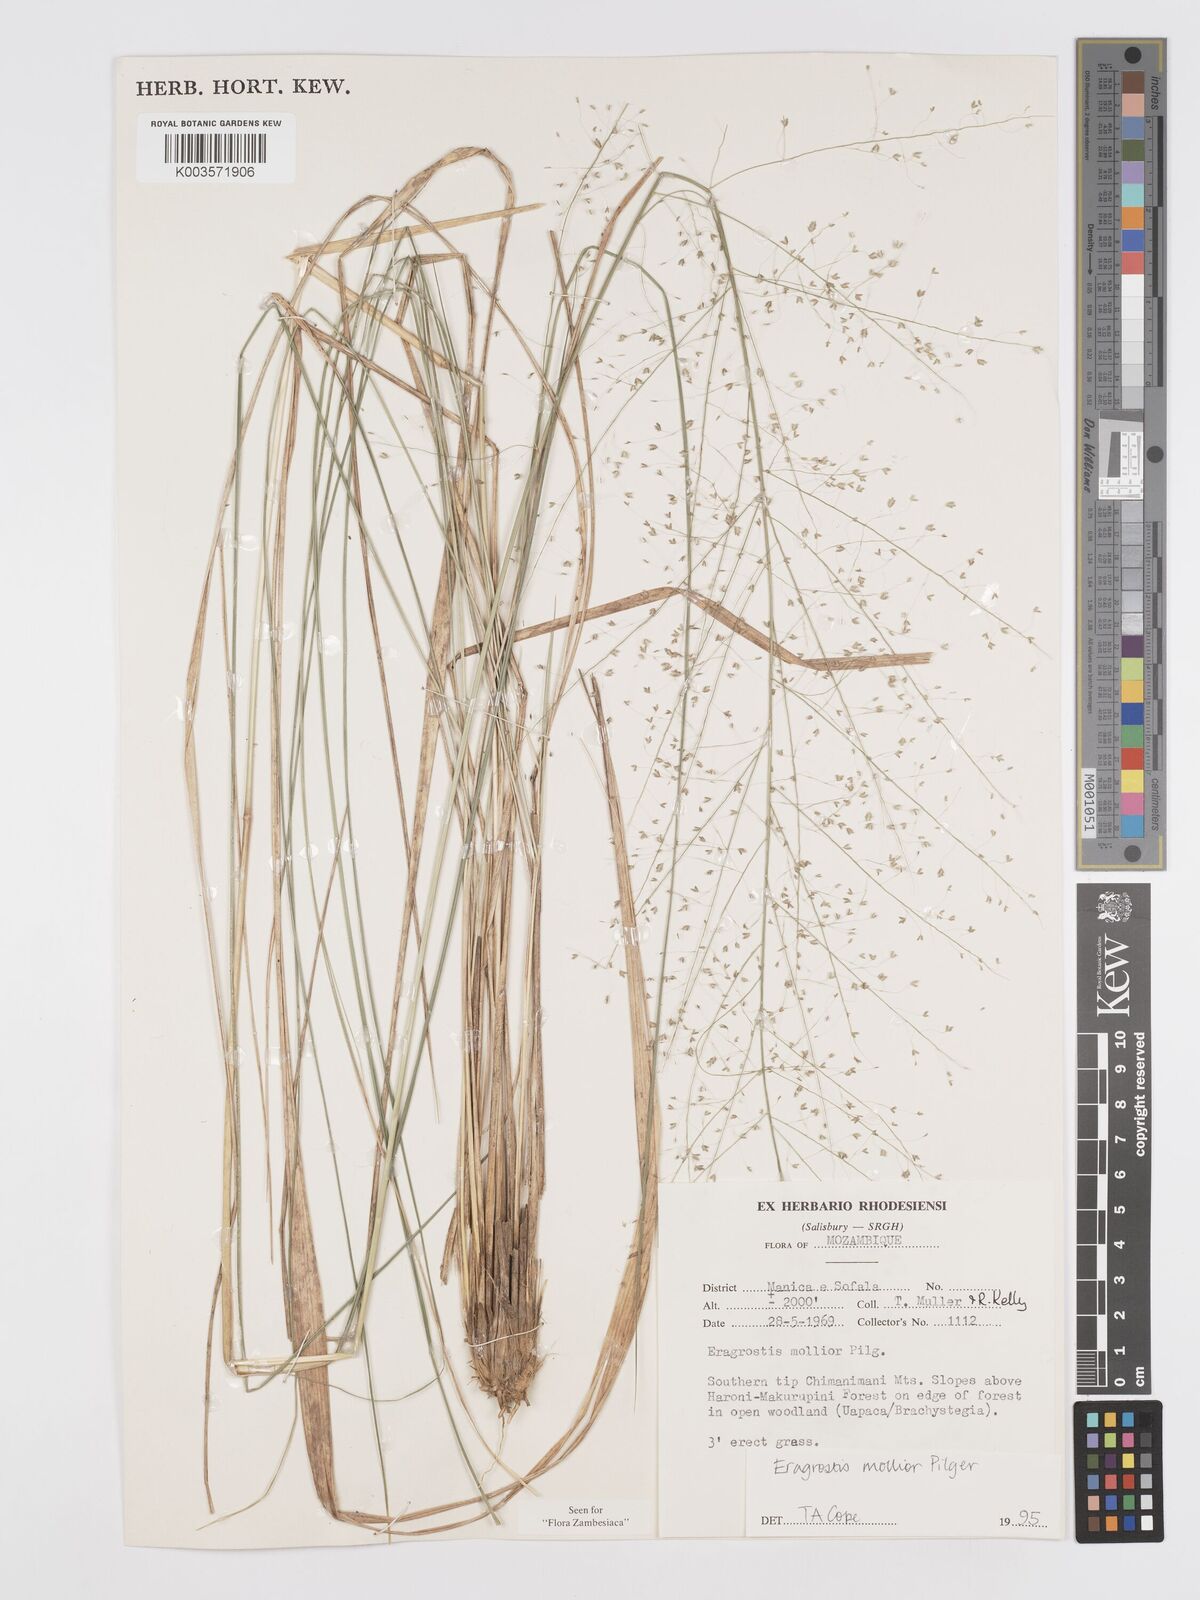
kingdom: Plantae
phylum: Tracheophyta
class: Liliopsida
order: Poales
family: Poaceae
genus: Eragrostis
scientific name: Eragrostis mollior
